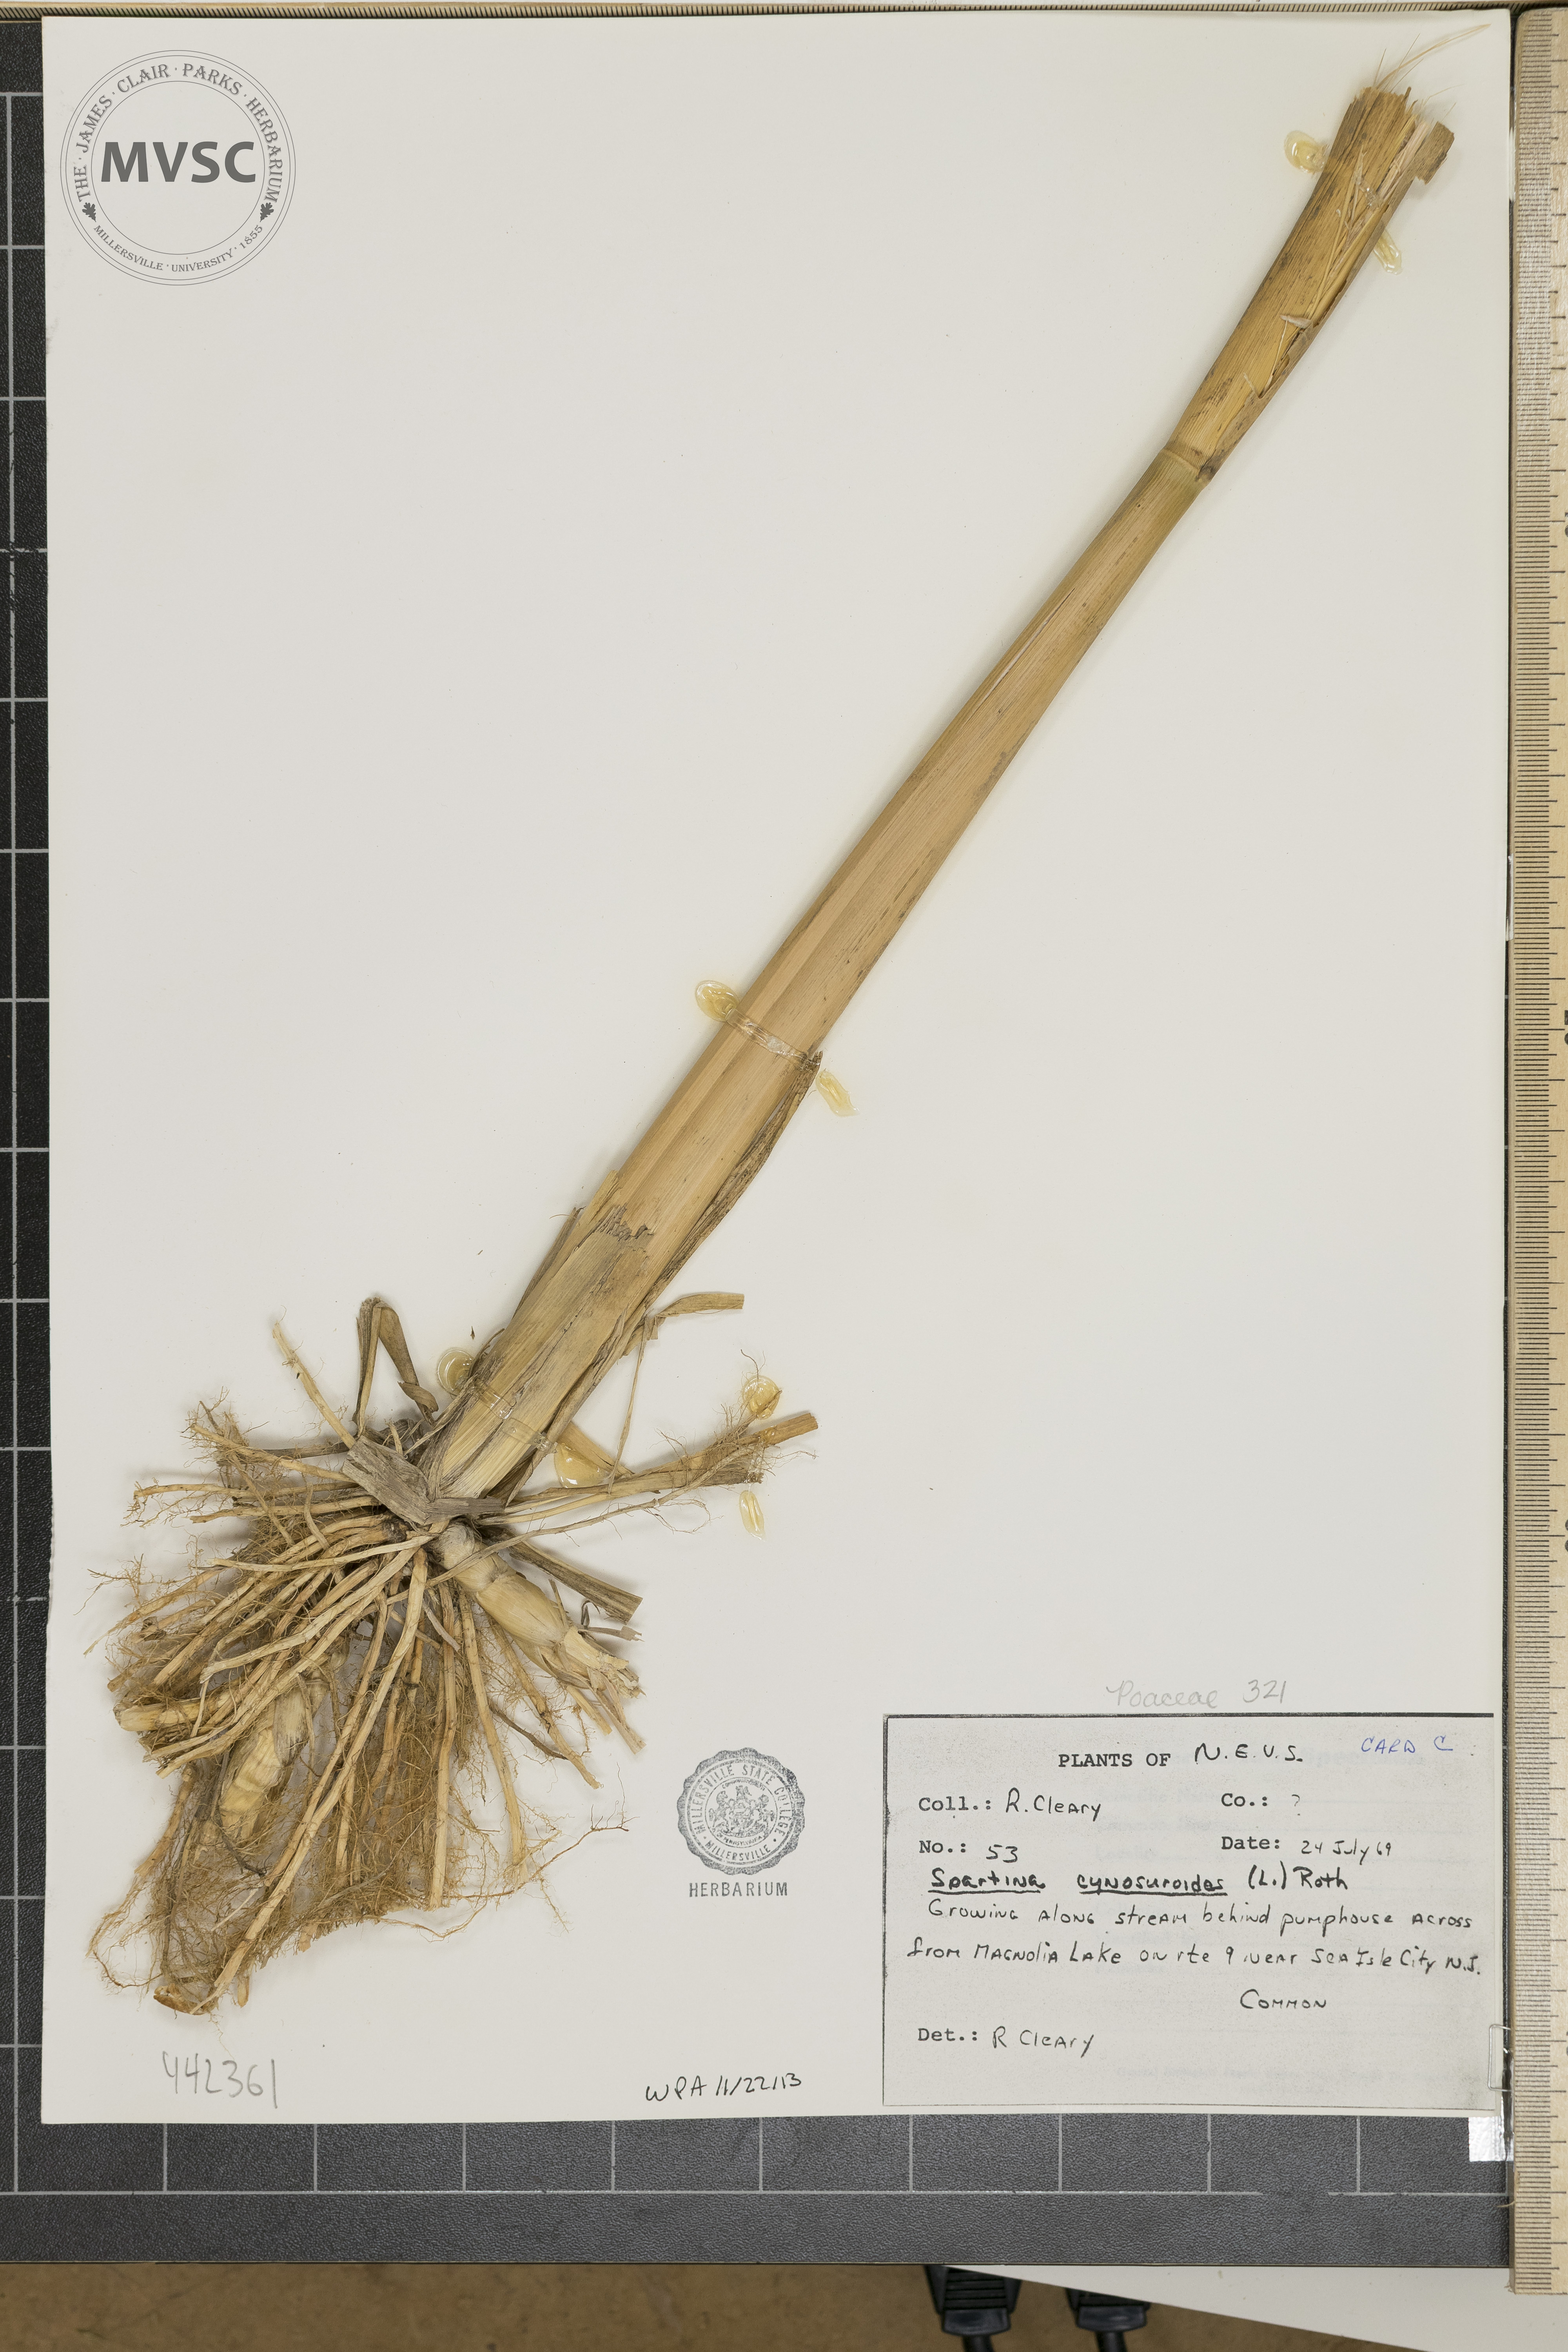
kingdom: Plantae
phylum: Tracheophyta
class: Liliopsida
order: Poales
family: Poaceae
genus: Sporobolus
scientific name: Sporobolus cynosuroides
